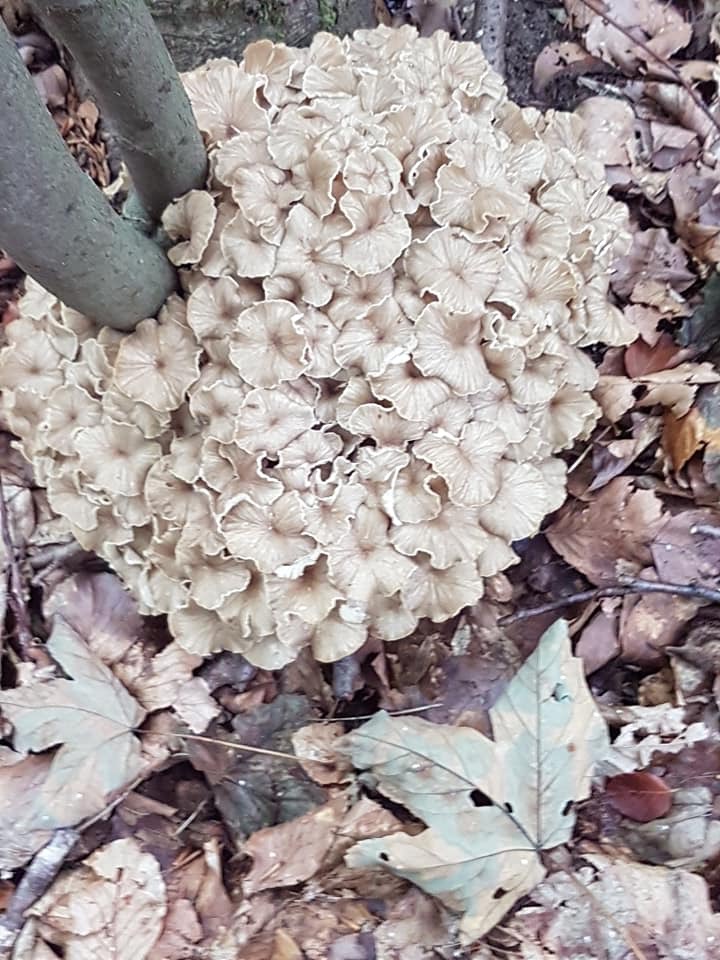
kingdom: Fungi
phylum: Basidiomycota
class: Agaricomycetes
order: Polyporales
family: Polyporaceae
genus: Polyporus
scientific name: Polyporus umbellatus
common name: skærmformet stilkporesvamp
